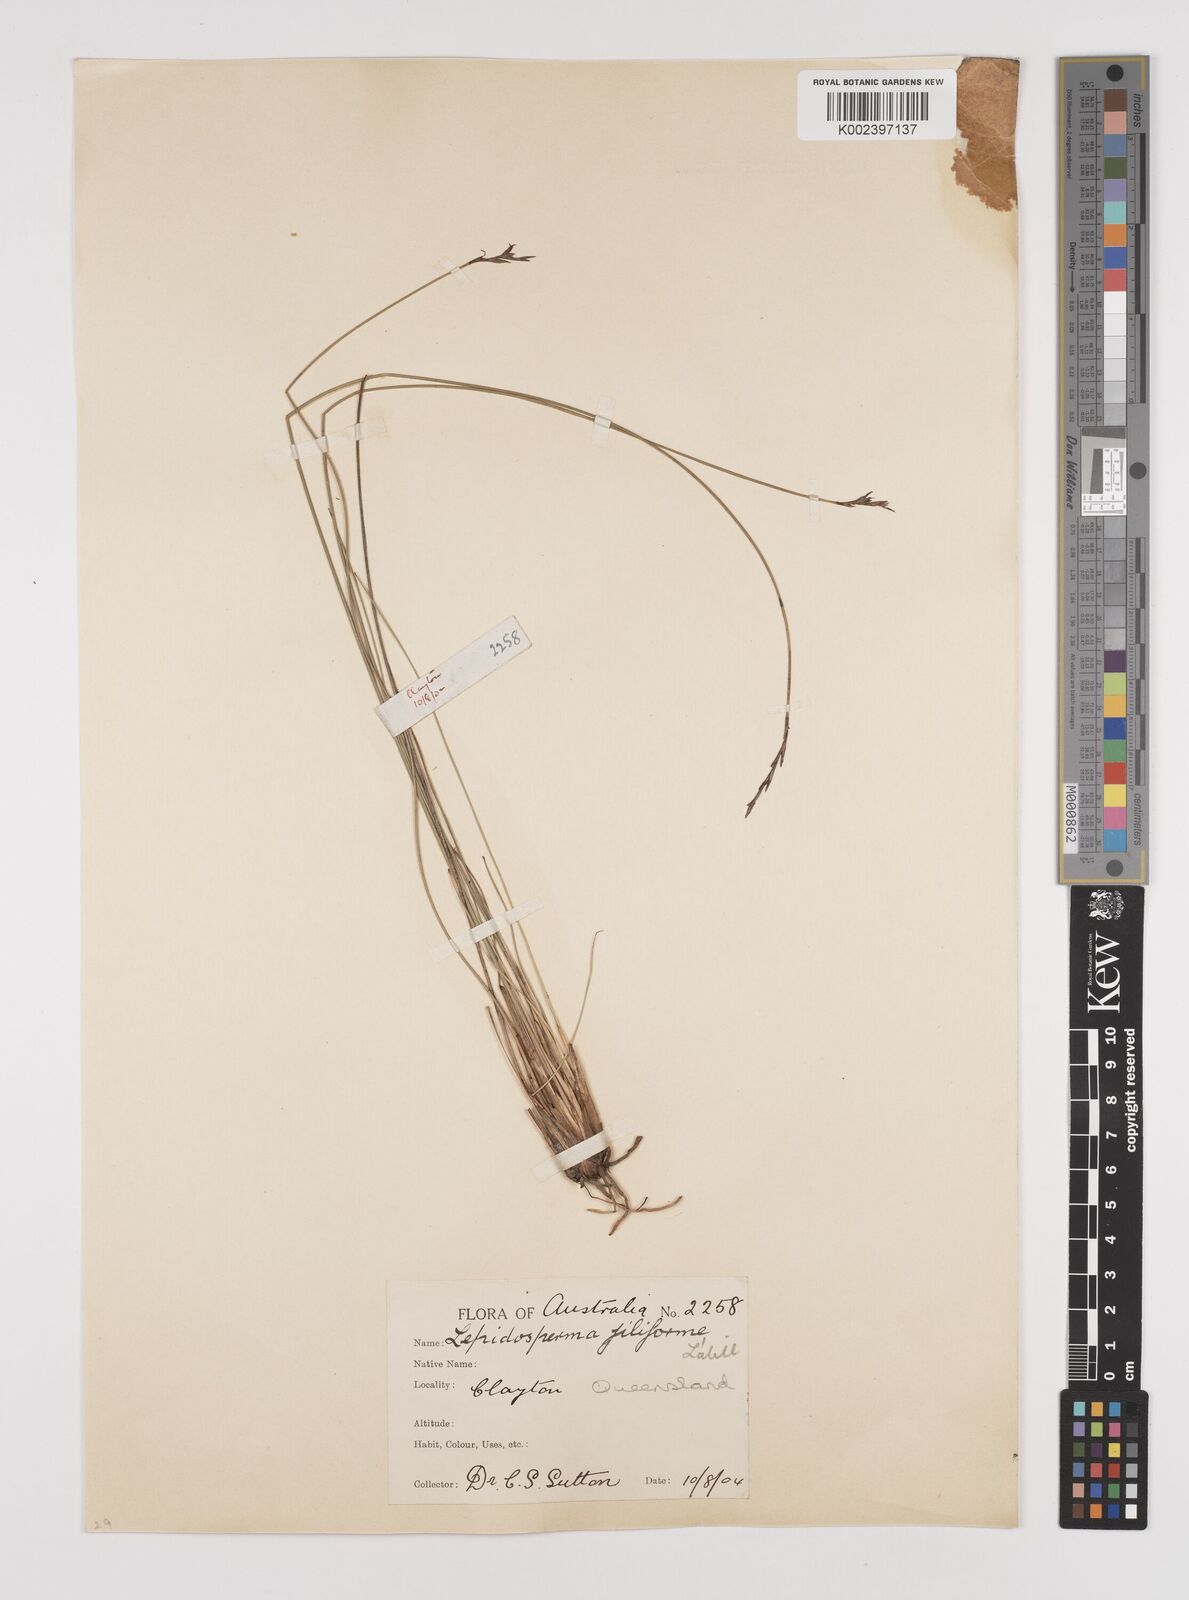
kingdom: Plantae
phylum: Tracheophyta
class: Liliopsida
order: Poales
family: Cyperaceae
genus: Lepidosperma
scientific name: Lepidosperma filiforme
